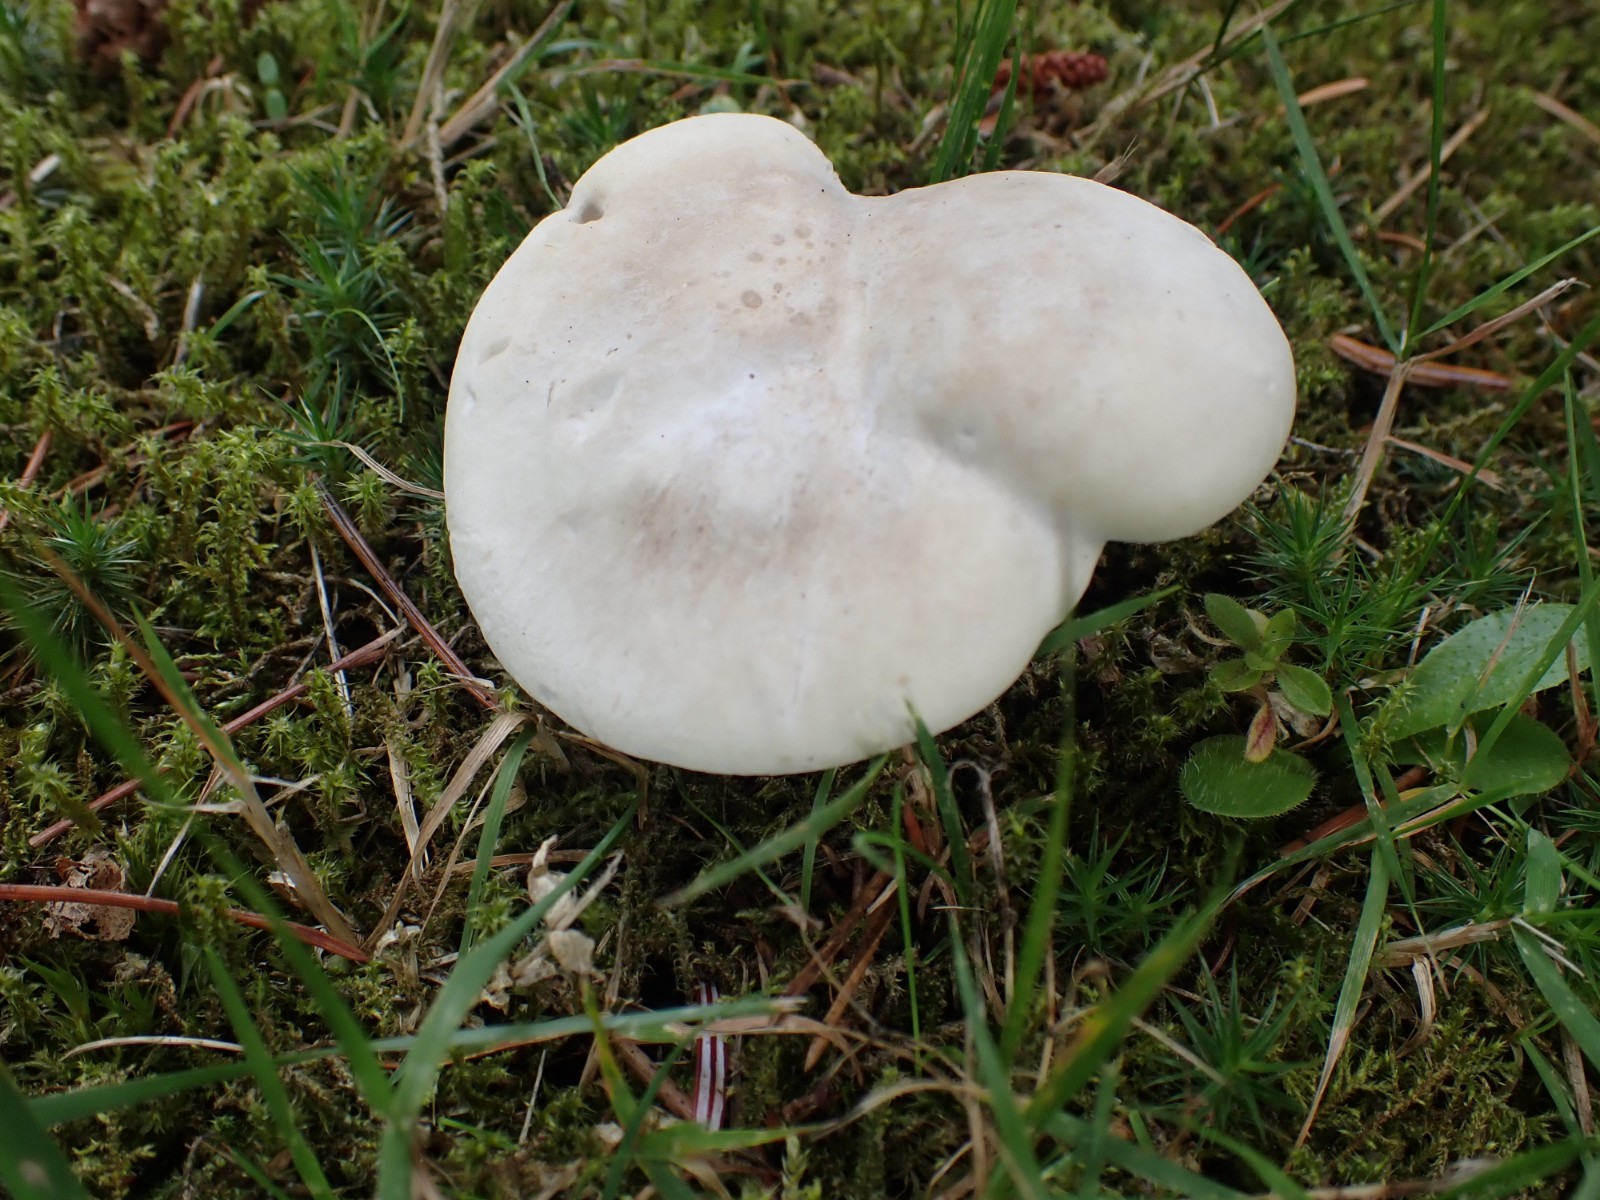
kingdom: Fungi
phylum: Basidiomycota
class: Agaricomycetes
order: Agaricales
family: Entolomataceae
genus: Clitopilus
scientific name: Clitopilus prunulus
